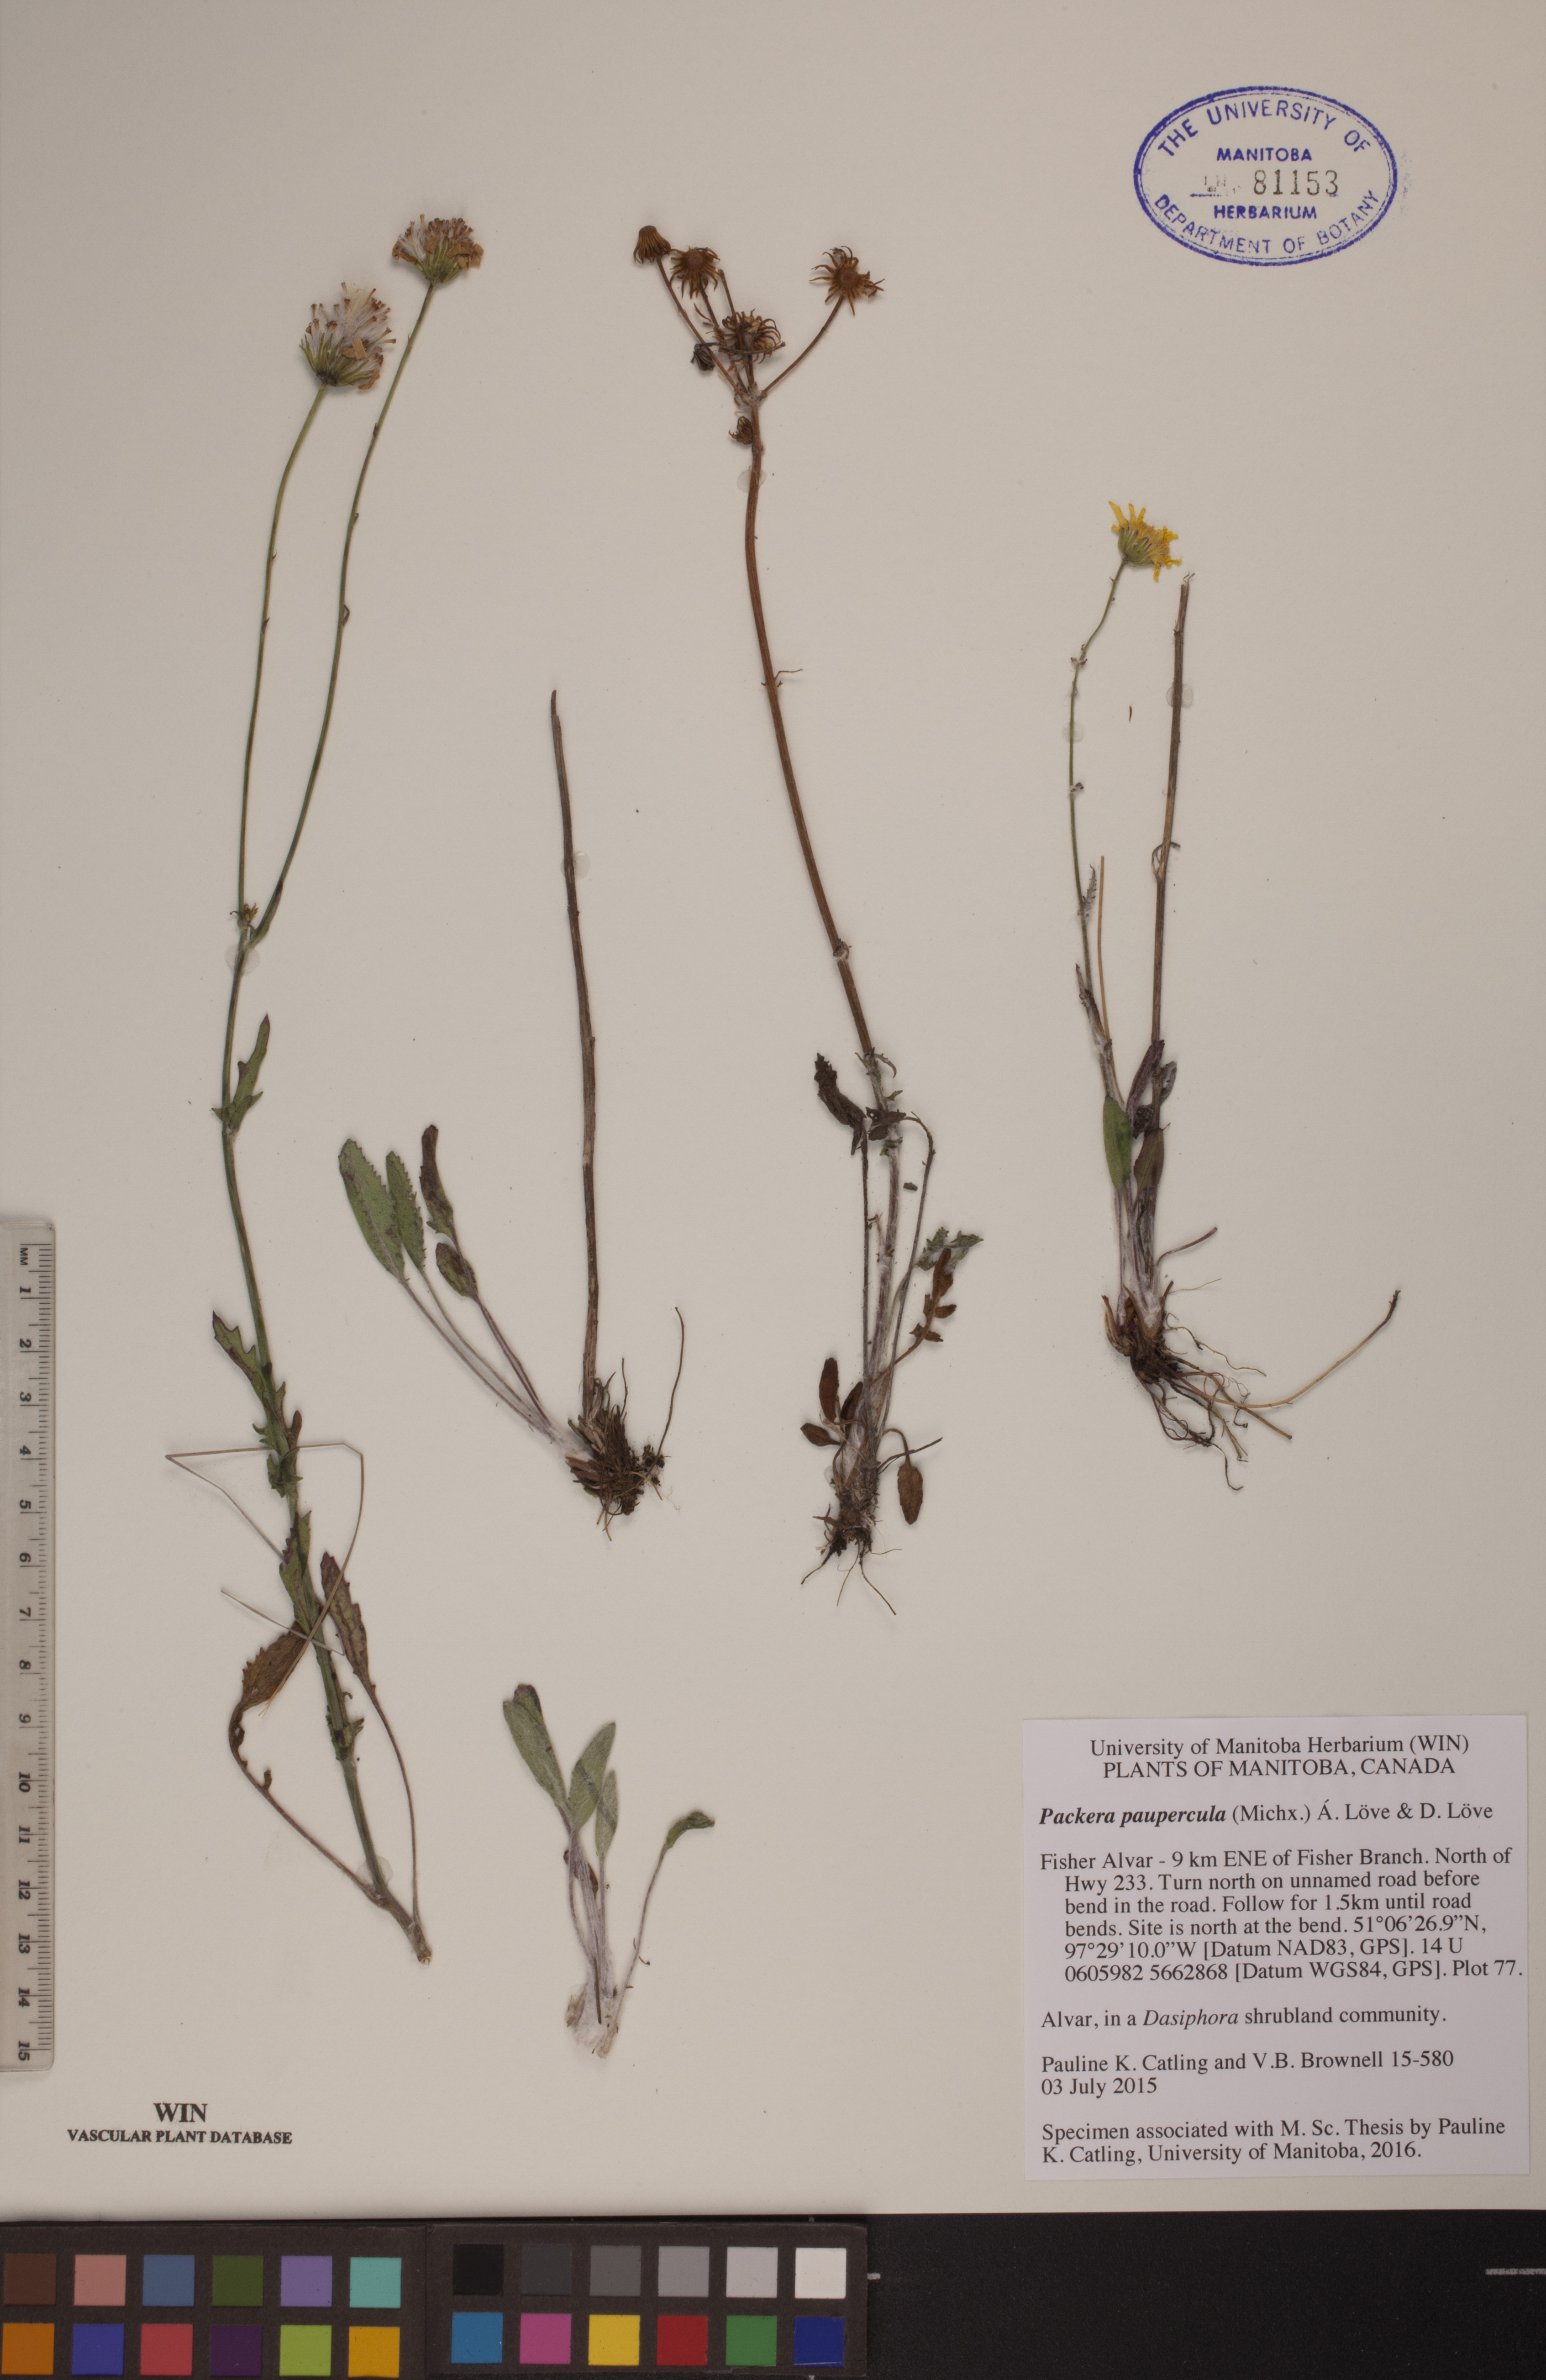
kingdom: Plantae
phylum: Tracheophyta
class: Magnoliopsida
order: Asterales
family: Asteraceae
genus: Packera
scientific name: Packera paupercula
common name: Balsam groundsel
